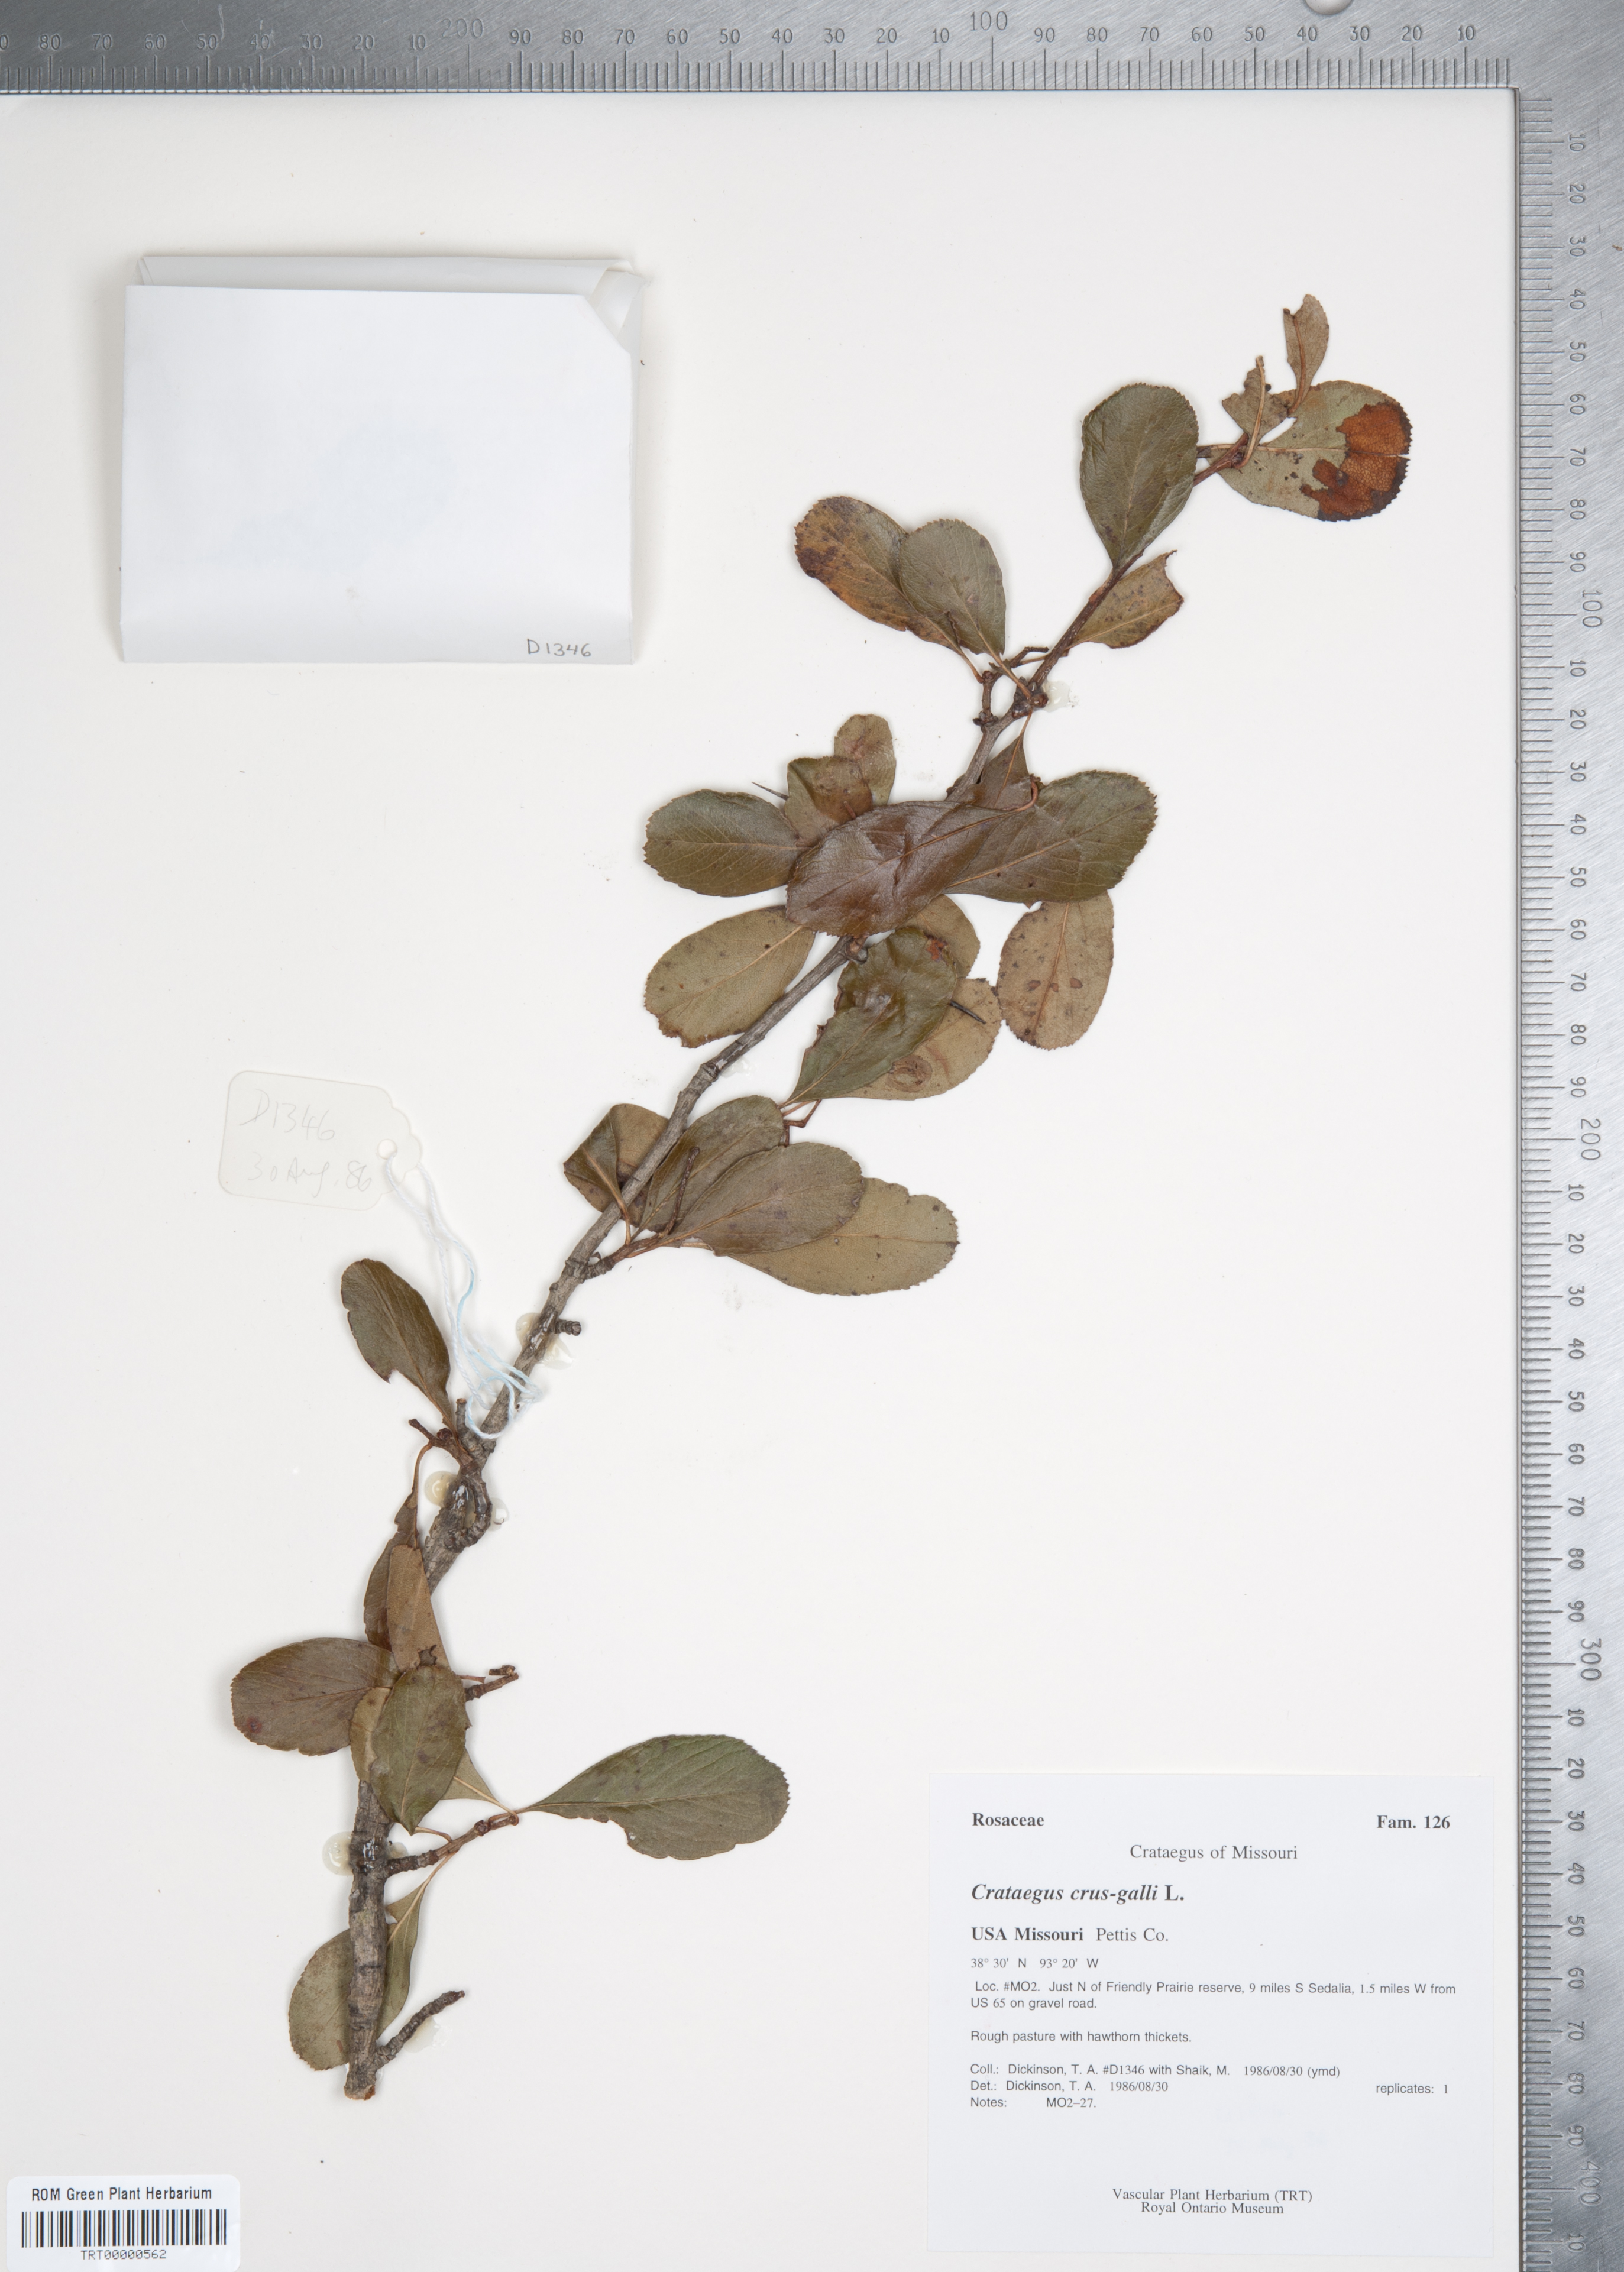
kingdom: Plantae
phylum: Tracheophyta
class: Magnoliopsida
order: Rosales
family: Rosaceae
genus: Crataegus
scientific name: Crataegus crus-galli
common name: Cockspurthorn
